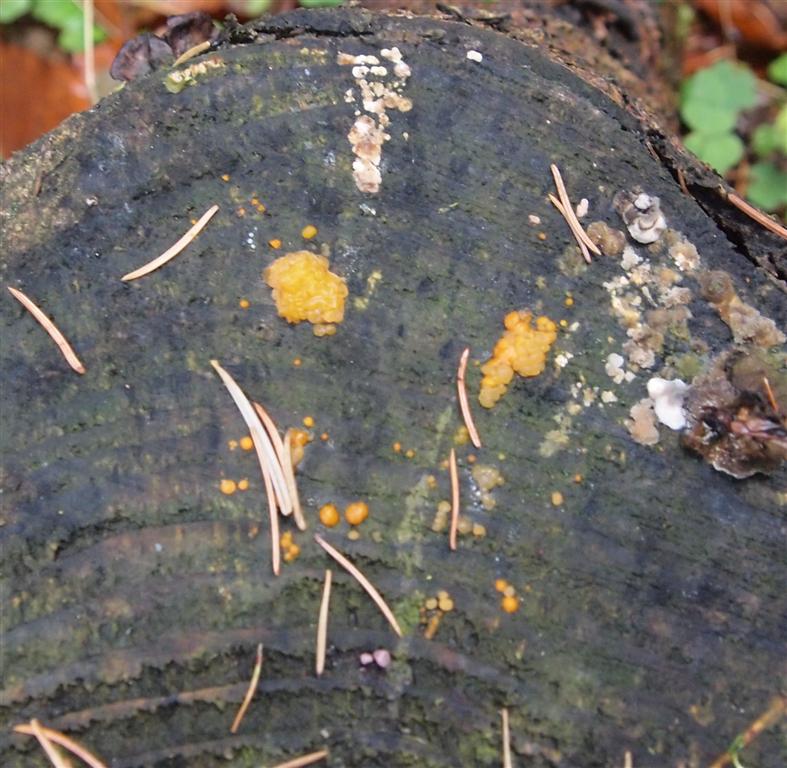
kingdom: Fungi
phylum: Basidiomycota
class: Dacrymycetes
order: Dacrymycetales
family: Dacrymycetaceae
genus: Dacrymyces
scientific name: Dacrymyces stillatus
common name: almindelig tåresvamp
